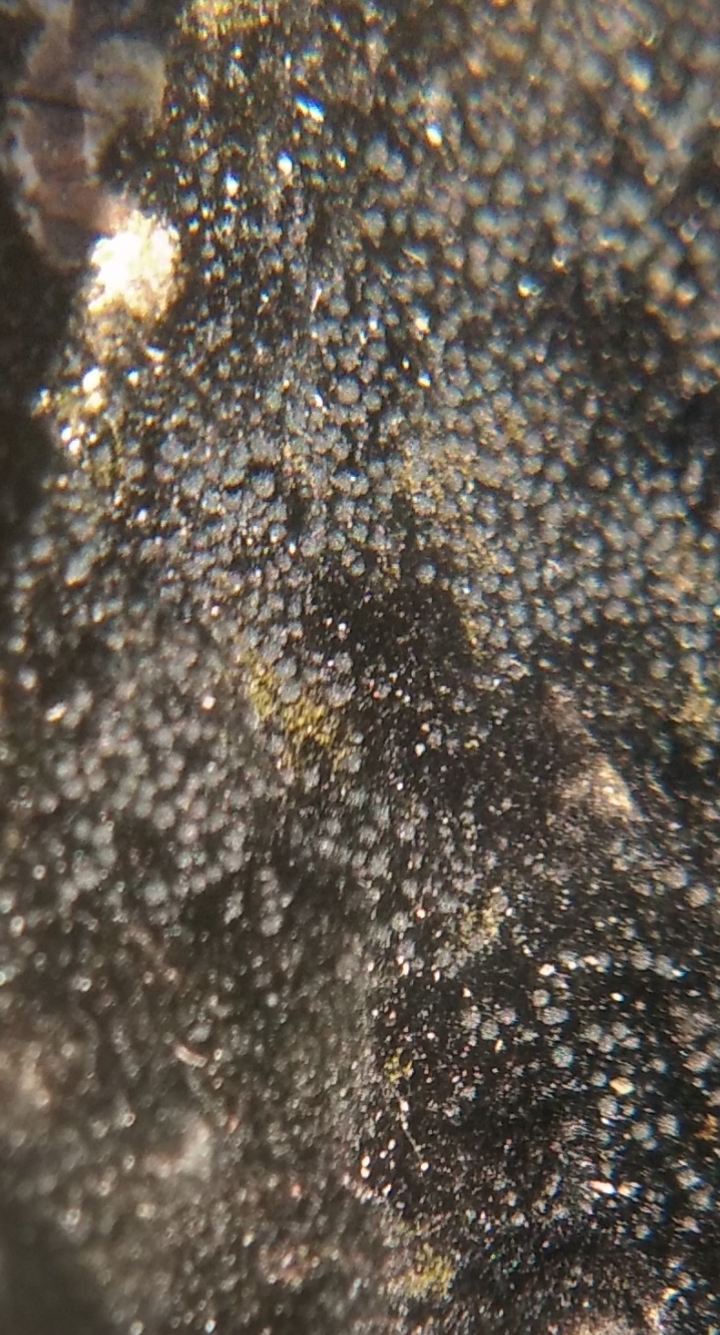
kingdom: Fungi
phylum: Ascomycota
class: Sordariomycetes
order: Coronophorales
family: Chaetosphaerellaceae
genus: Chaetosphaerella
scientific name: Chaetosphaerella phaeostroma
